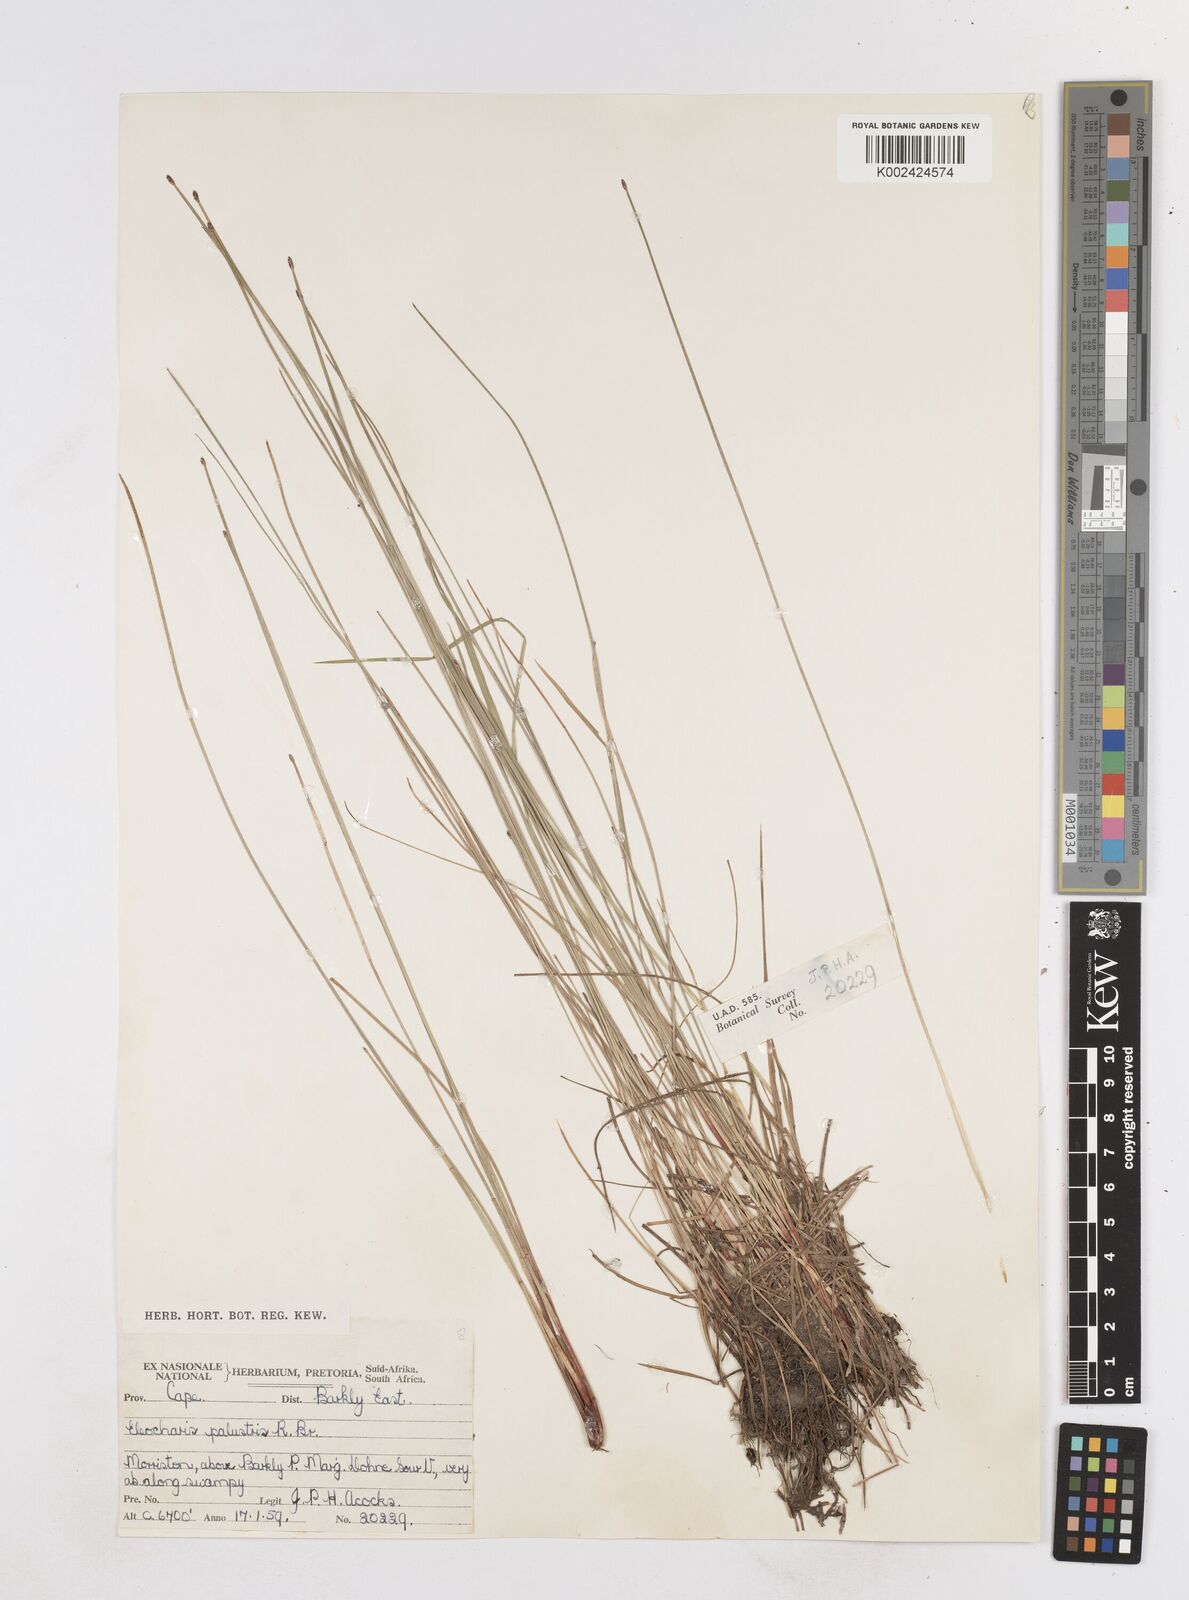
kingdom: Plantae
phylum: Tracheophyta
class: Liliopsida
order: Poales
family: Cyperaceae
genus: Eleocharis
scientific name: Eleocharis palustris
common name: Common spike-rush
